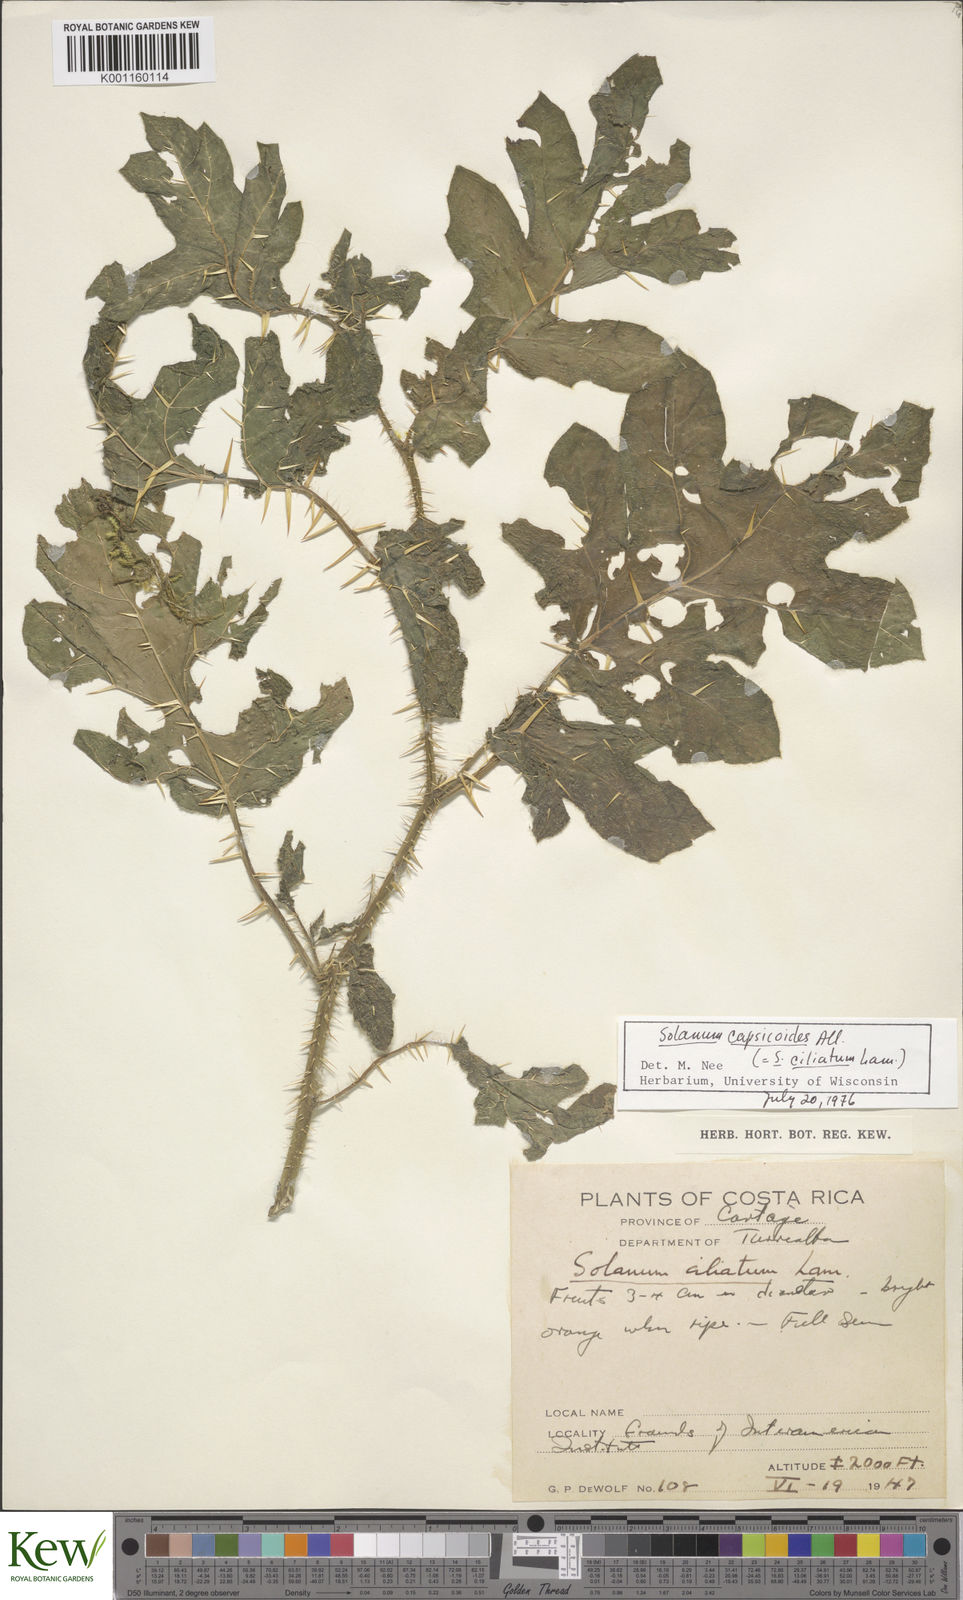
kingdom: Plantae
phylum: Tracheophyta
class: Magnoliopsida
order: Solanales
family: Solanaceae
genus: Solanum
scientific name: Solanum capsicoides
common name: Cockroach berry
